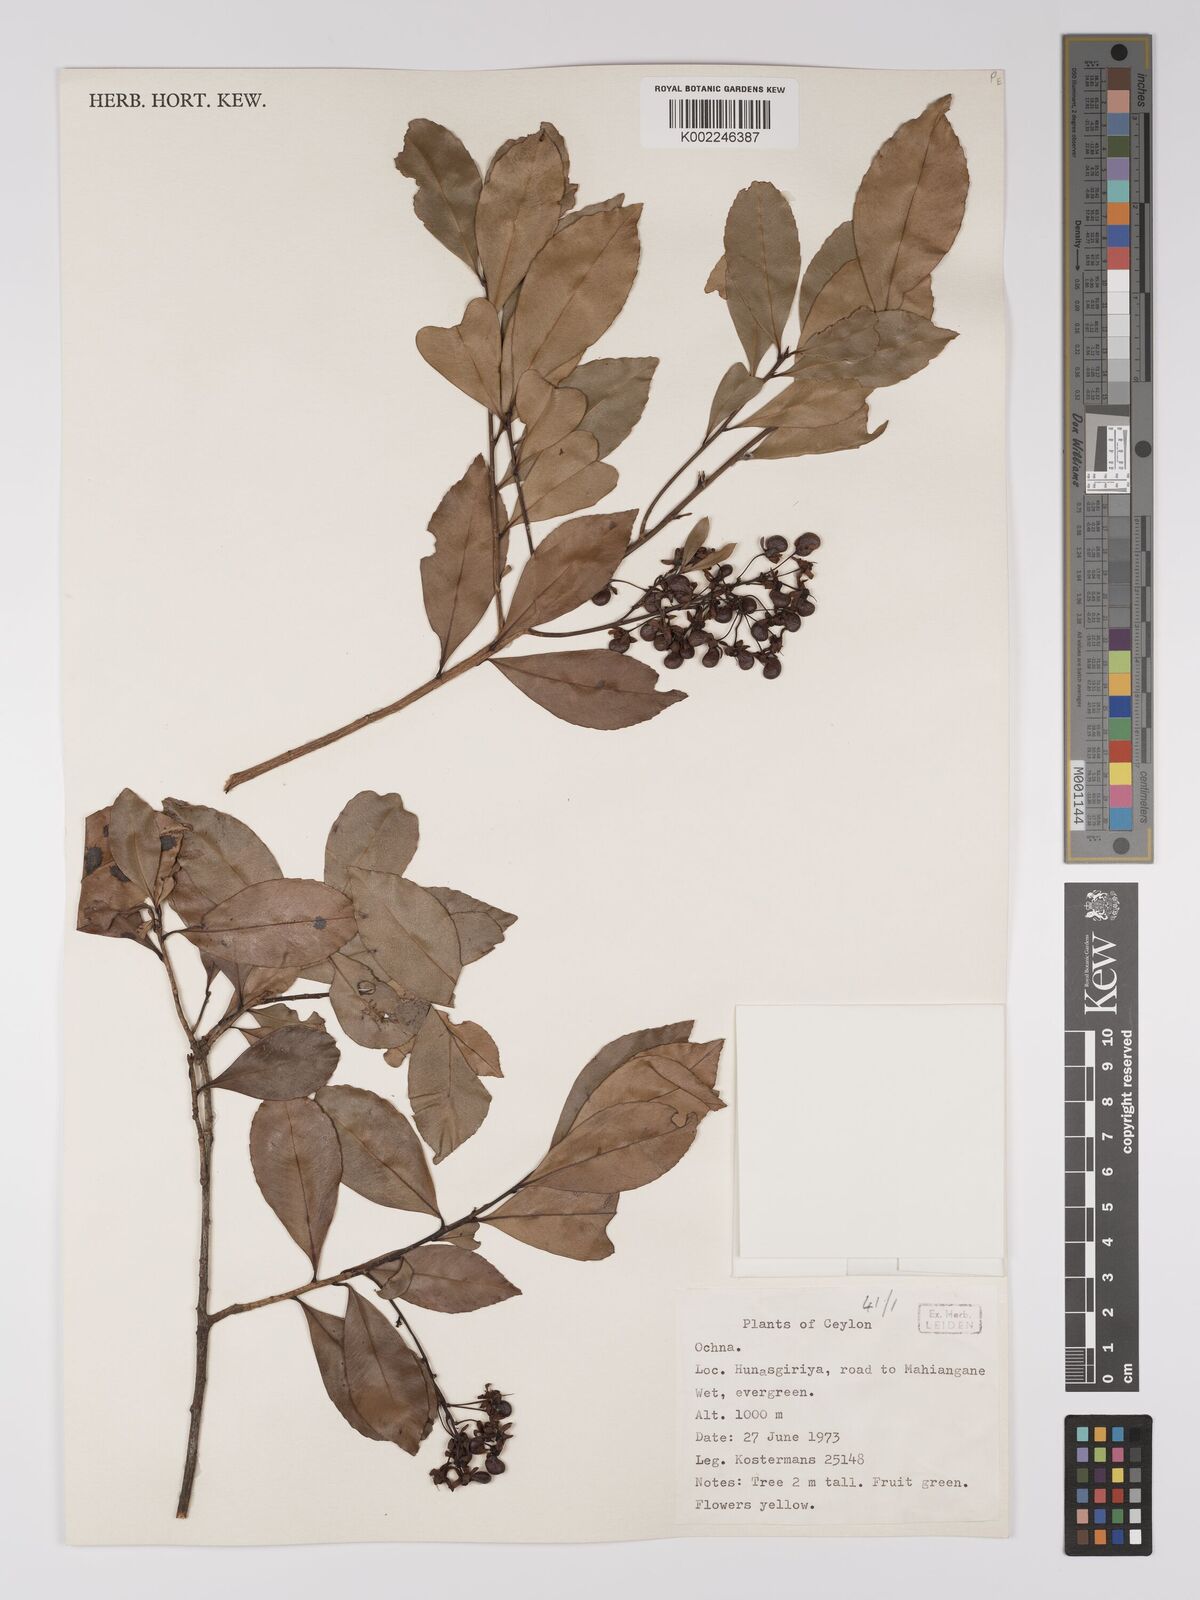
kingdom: Plantae
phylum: Tracheophyta
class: Magnoliopsida
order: Malpighiales
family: Ochnaceae
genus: Ochna
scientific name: Ochna
